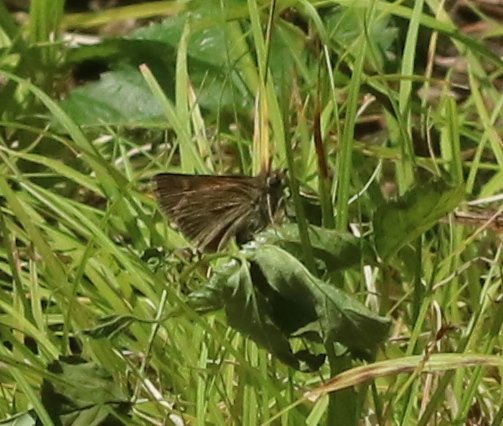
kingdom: Animalia
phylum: Arthropoda
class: Insecta
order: Lepidoptera
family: Hesperiidae
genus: Polites
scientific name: Polites themistocles
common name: Tawny-edged Skipper
